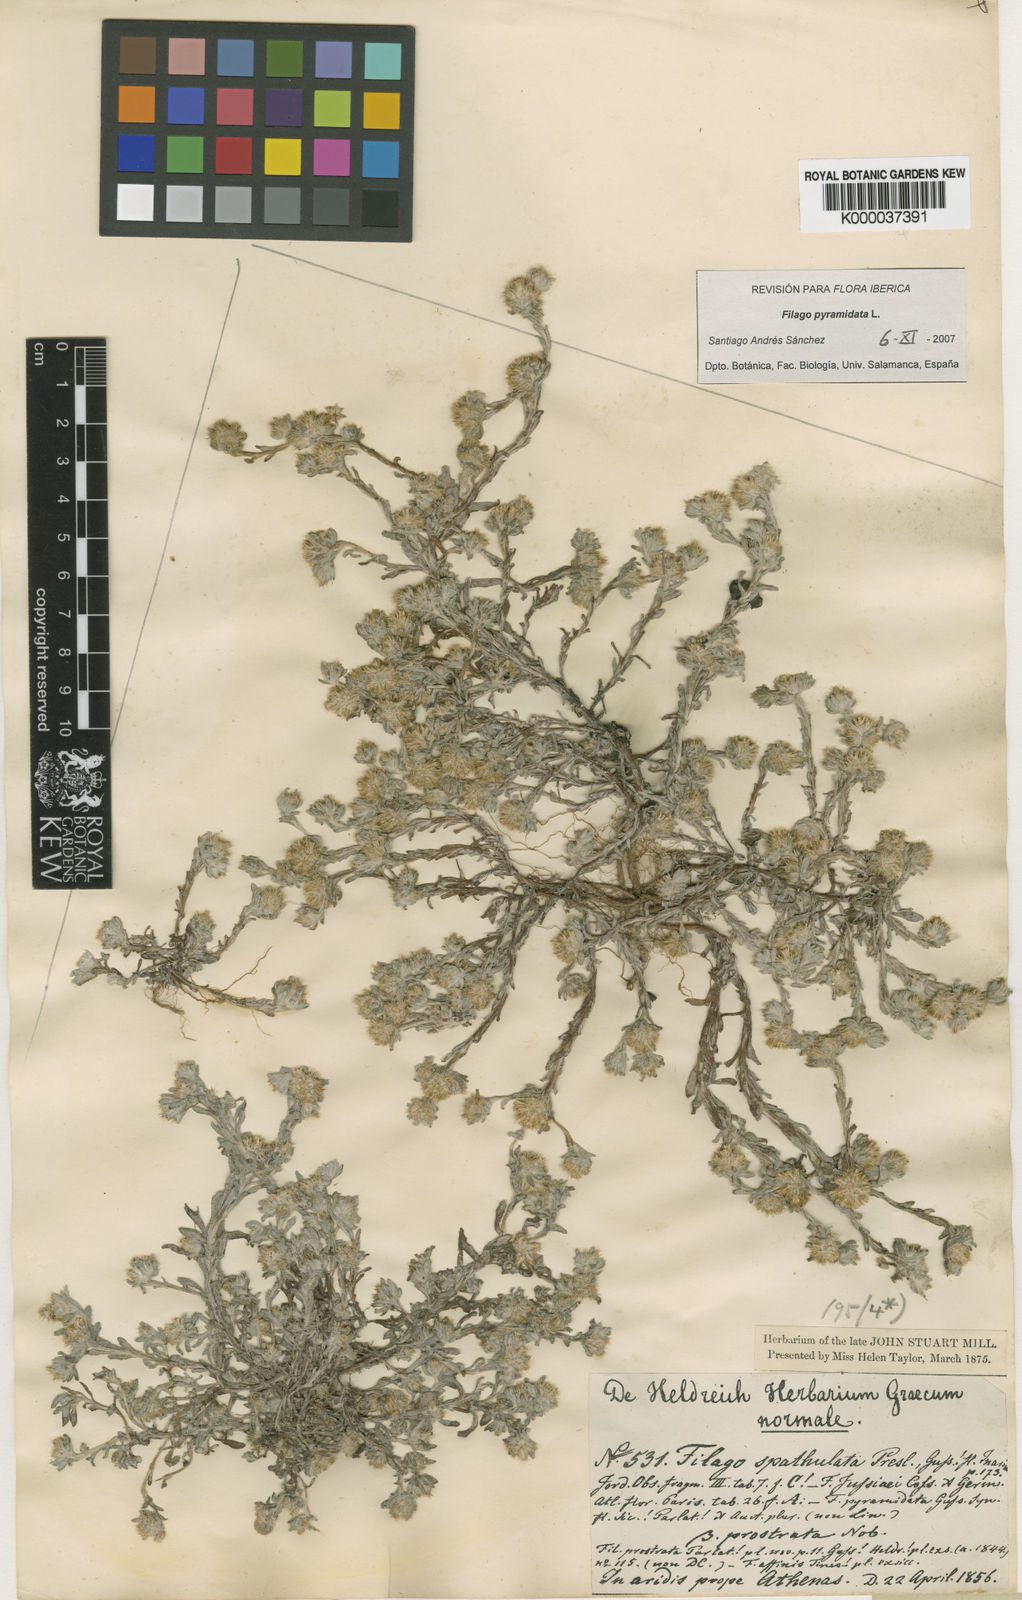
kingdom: Plantae
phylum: Tracheophyta
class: Magnoliopsida
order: Asterales
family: Asteraceae
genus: Filago
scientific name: Filago pyramidata
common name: Broad-leaved cudweed
